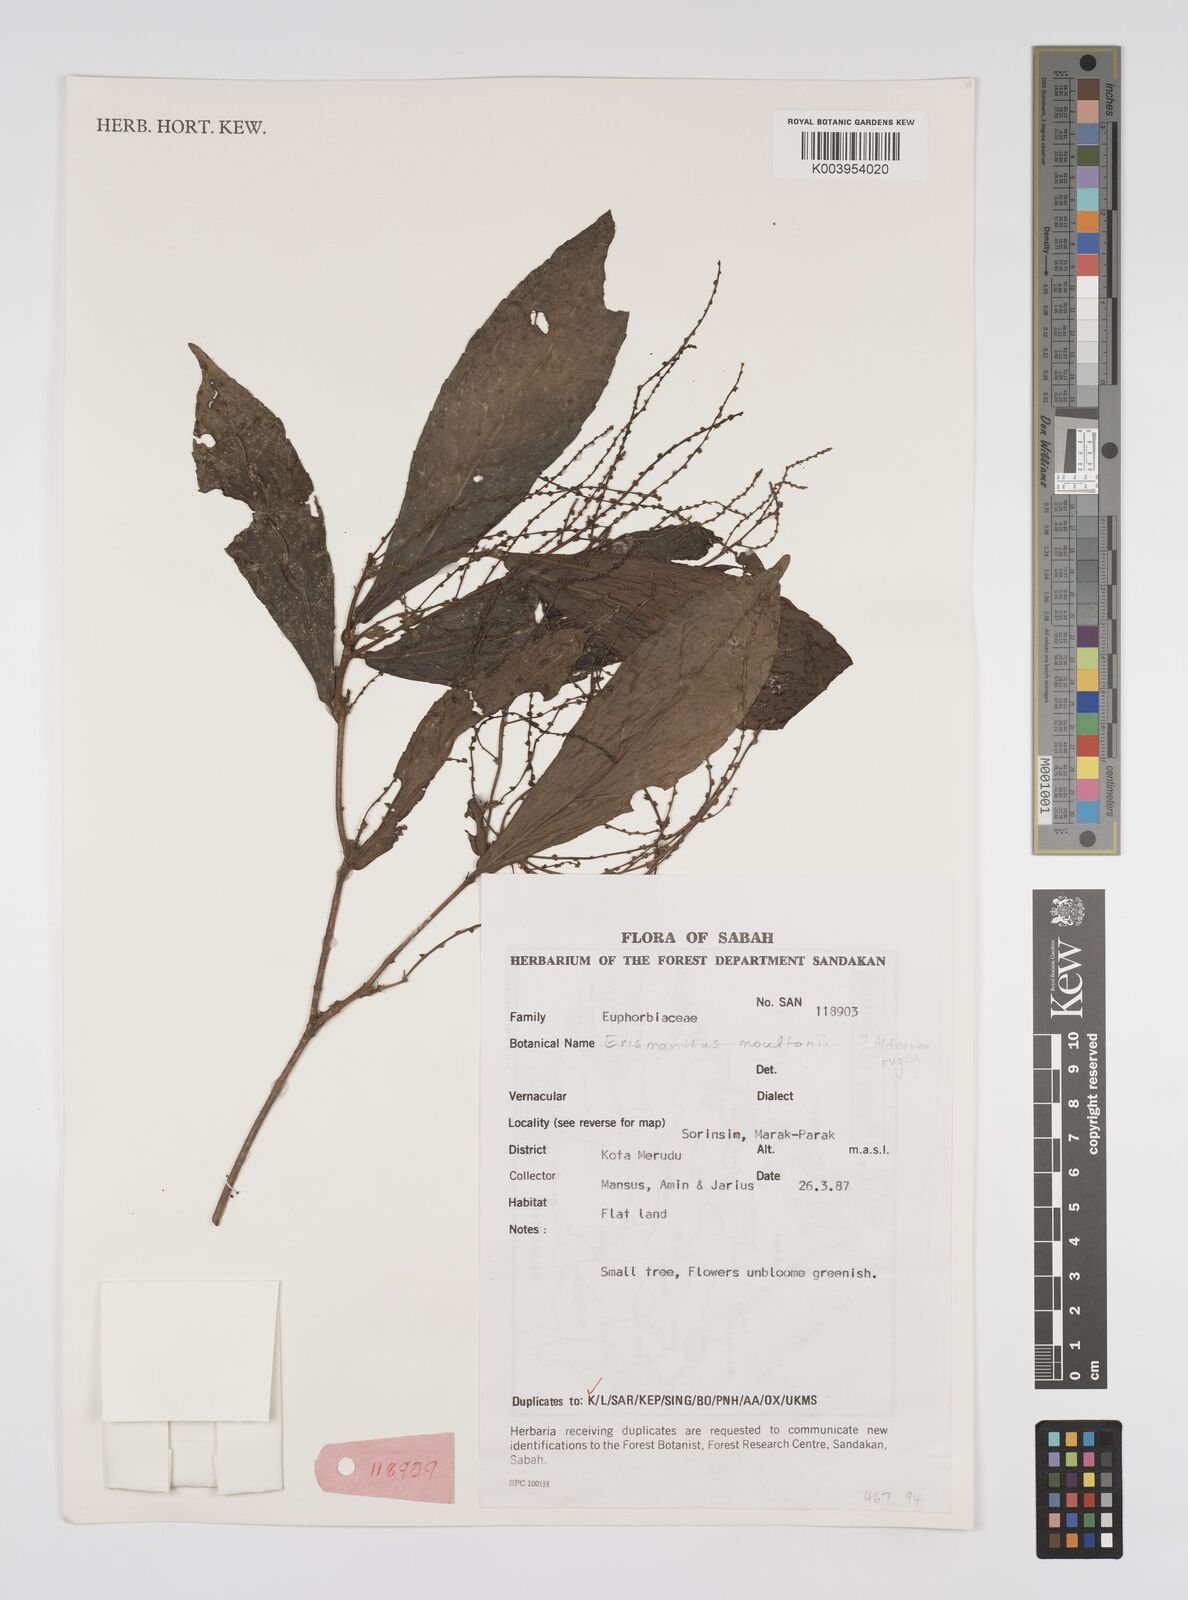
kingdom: Plantae
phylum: Tracheophyta
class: Magnoliopsida
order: Malpighiales
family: Euphorbiaceae
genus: Alchornea
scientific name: Alchornea rugosa
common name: Alchorntree
